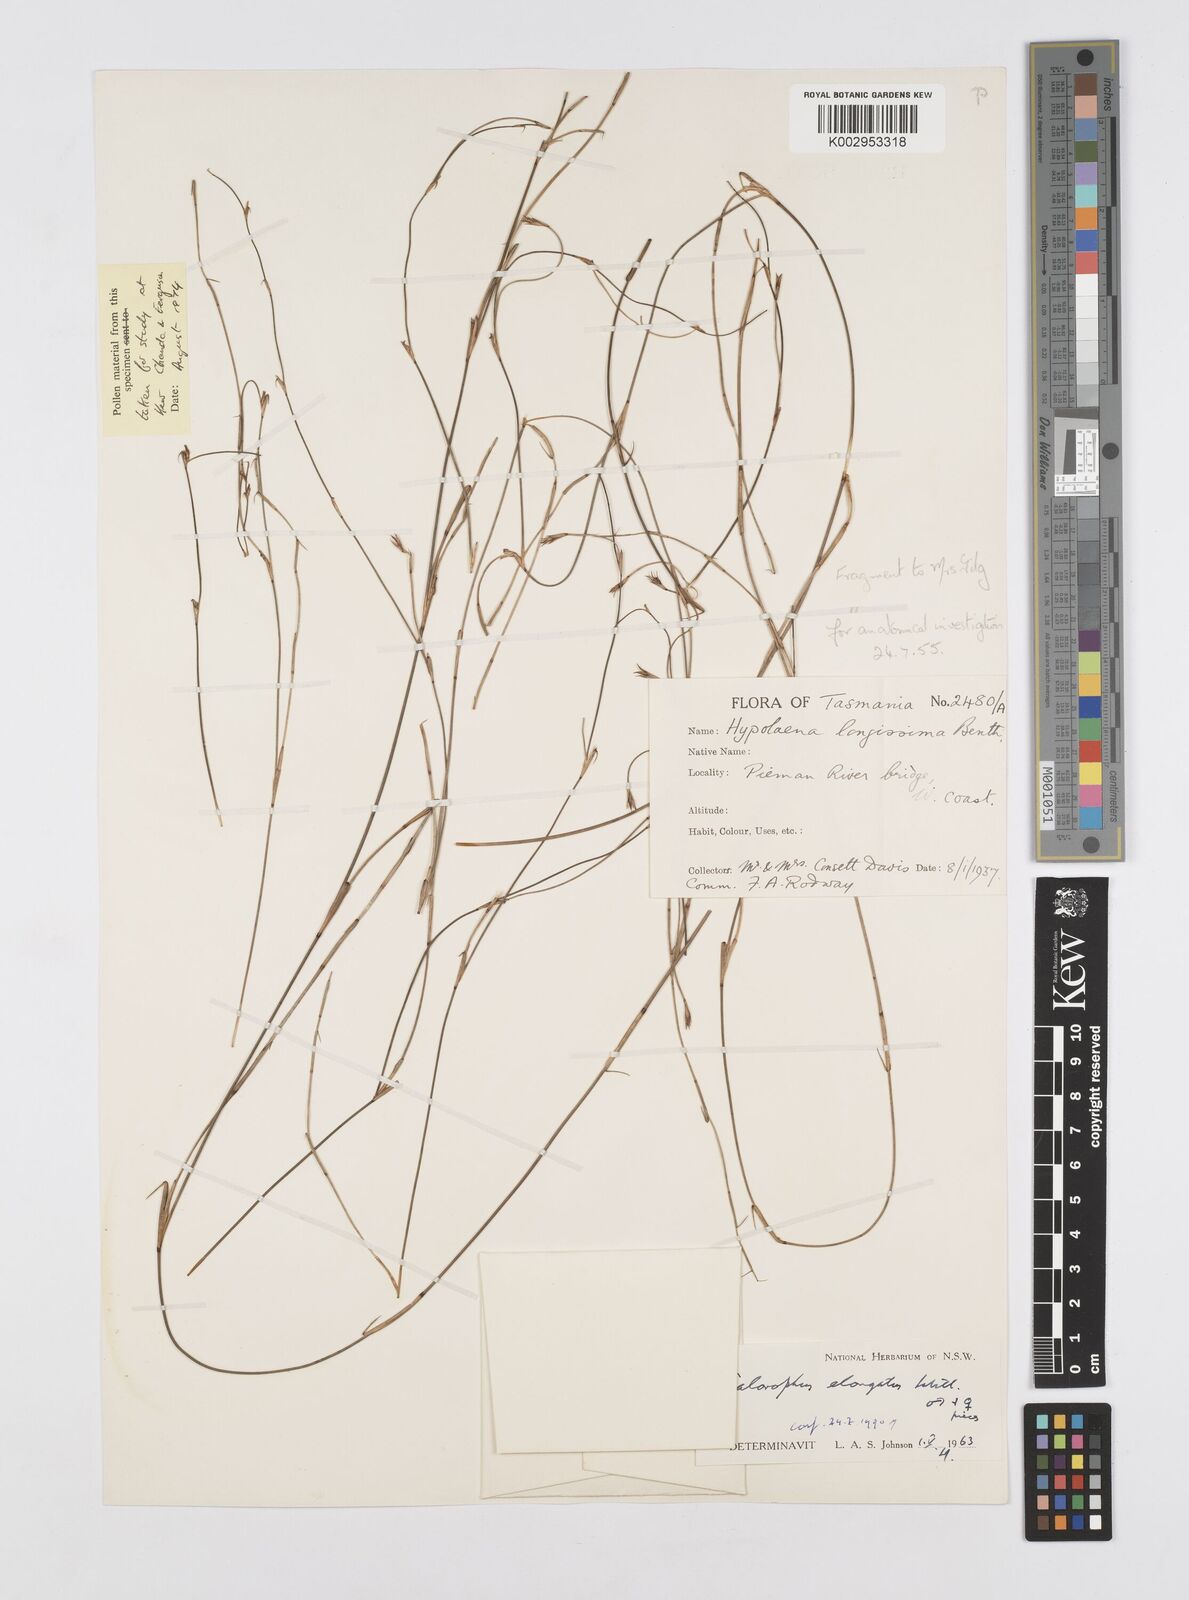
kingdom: Plantae
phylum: Tracheophyta
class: Liliopsida
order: Poales
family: Restionaceae
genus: Calorophus
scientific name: Calorophus elongatus
